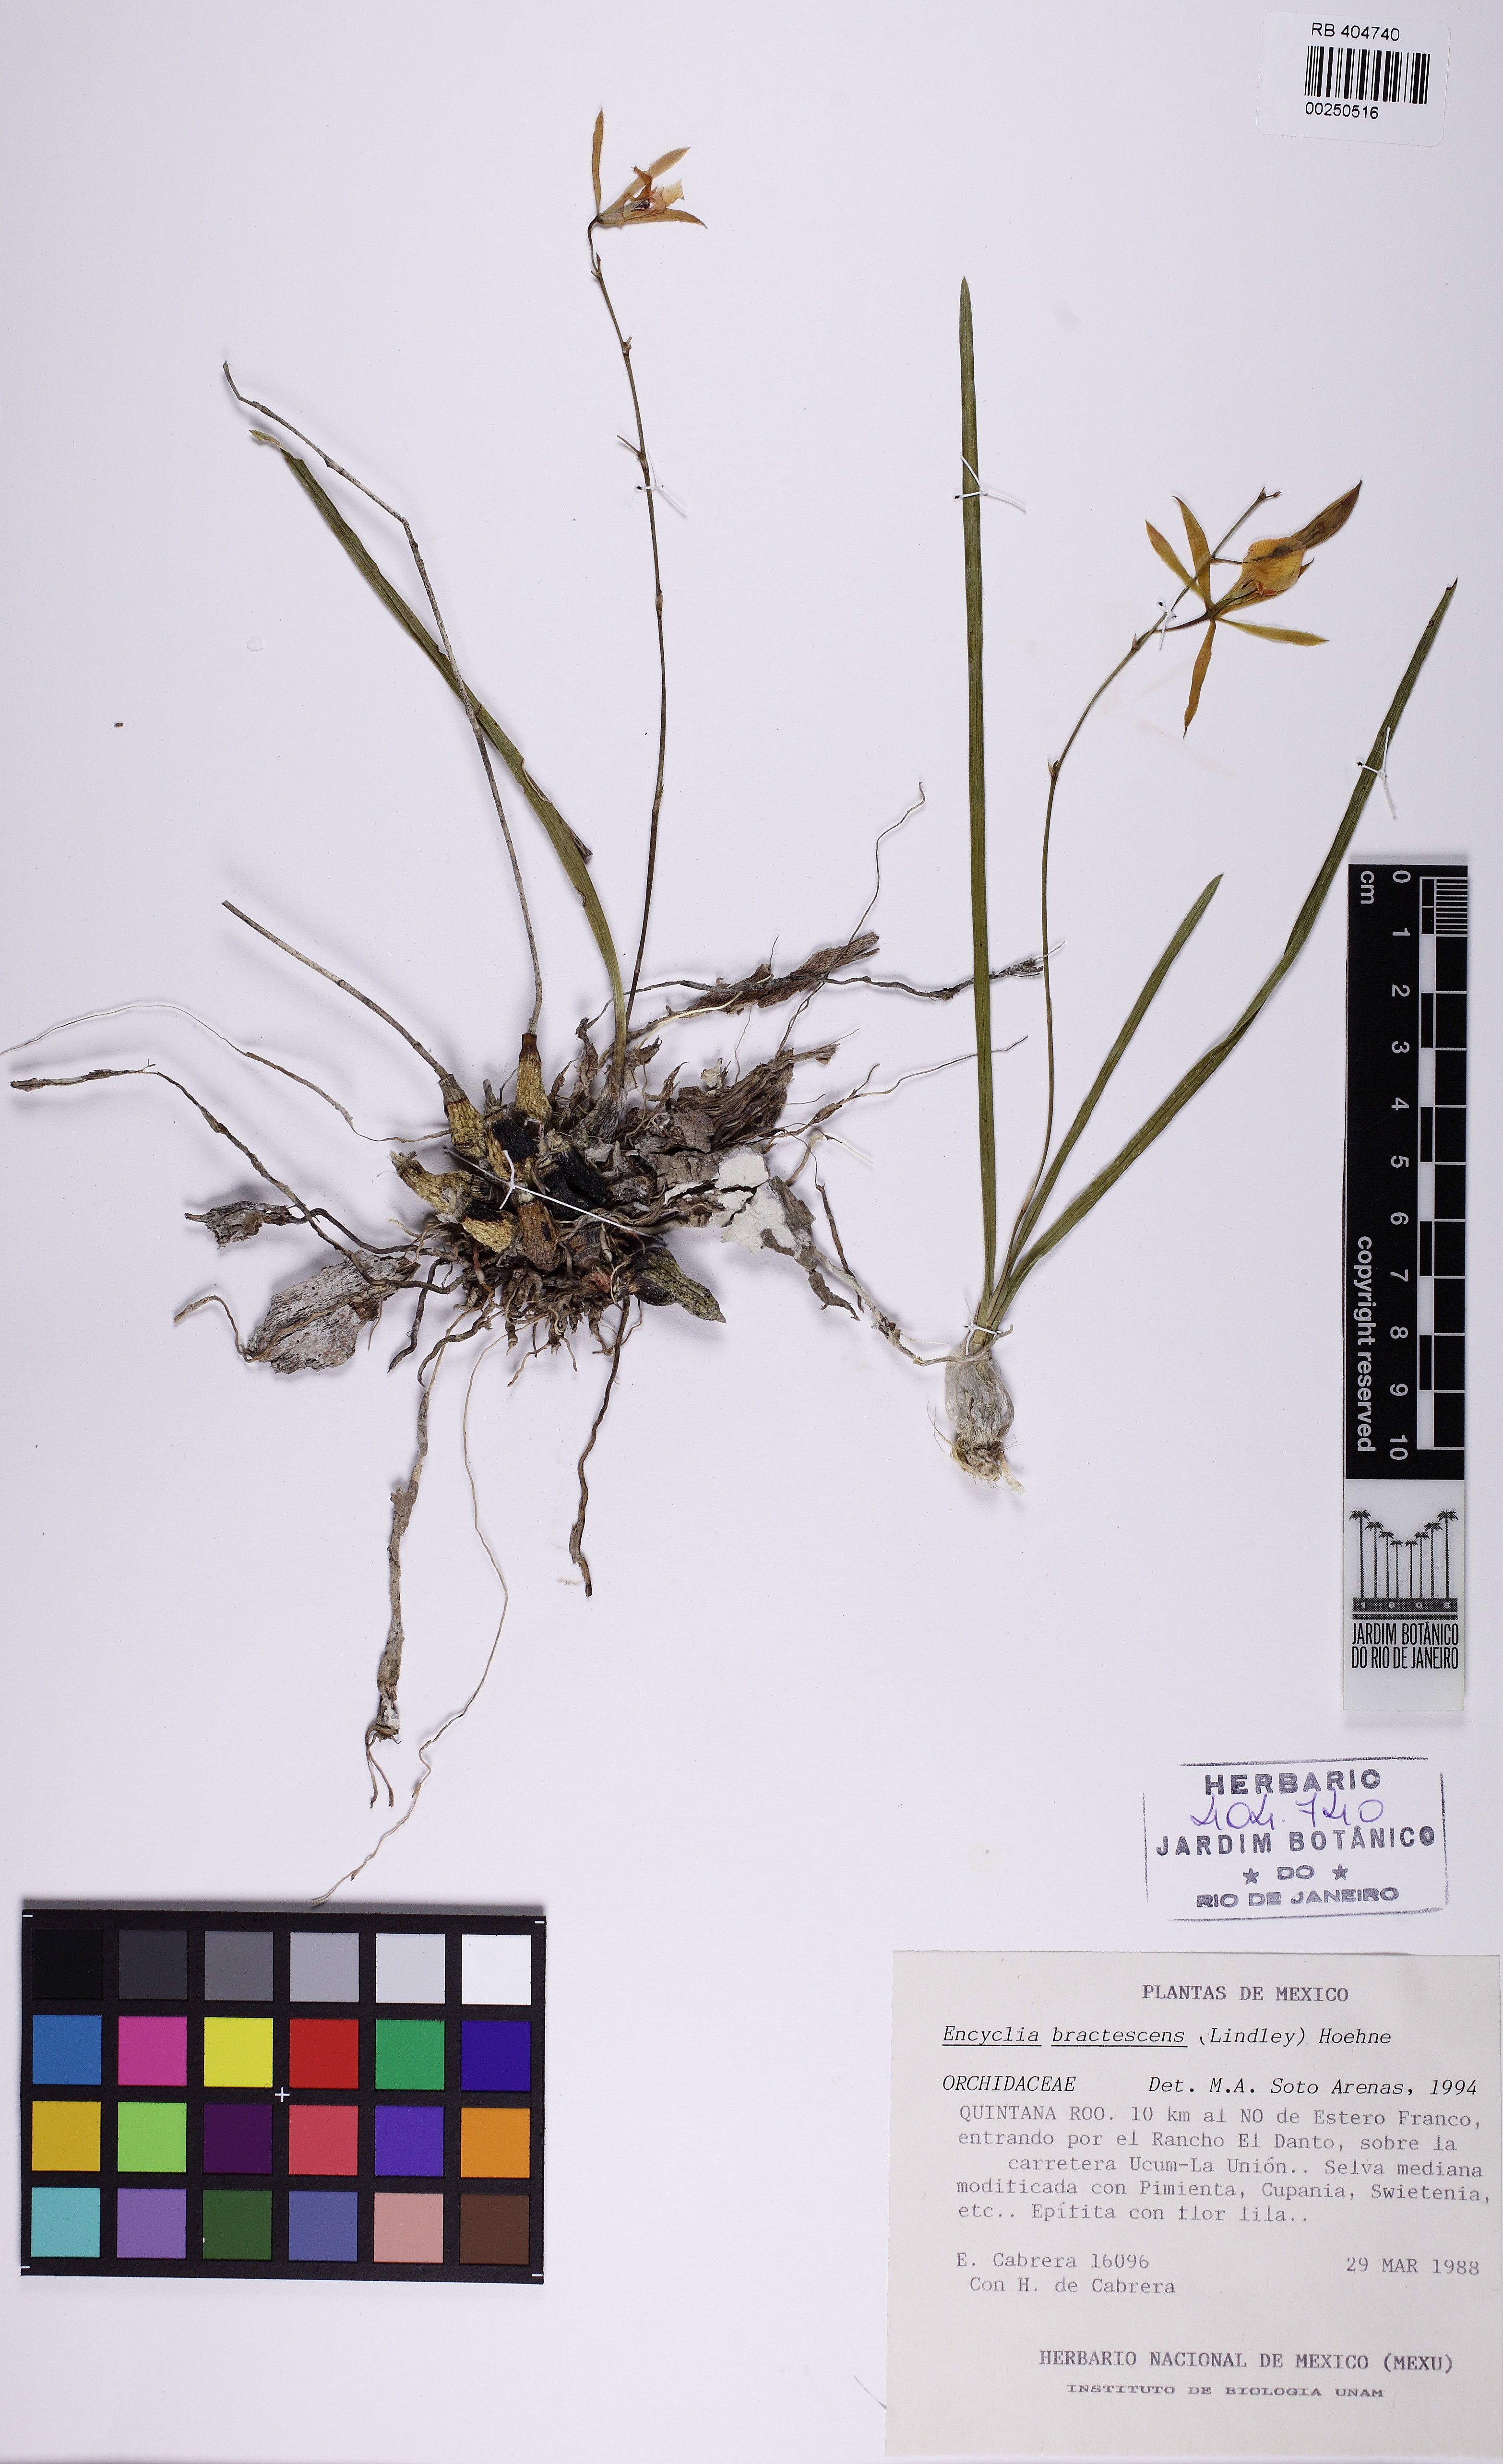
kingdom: Plantae
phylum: Tracheophyta
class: Liliopsida
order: Asparagales
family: Orchidaceae
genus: Encyclia
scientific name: Encyclia bractescens
